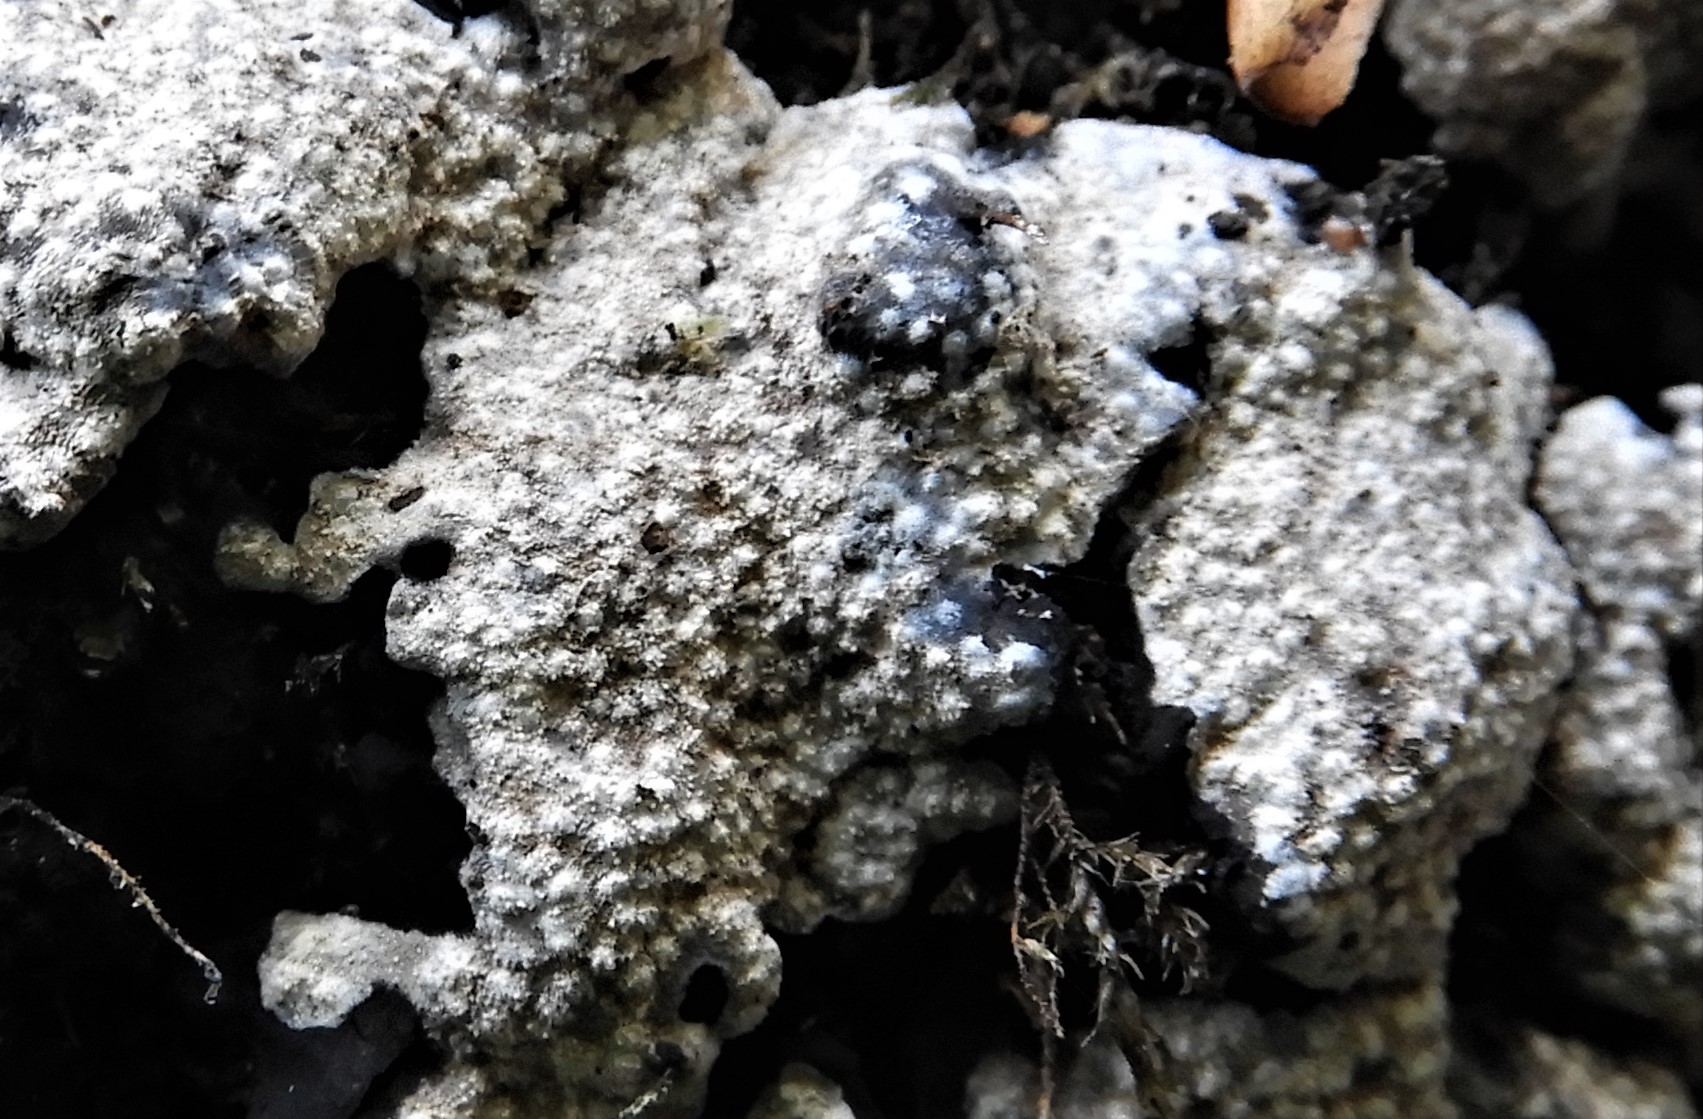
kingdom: Fungi
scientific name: Fungi
